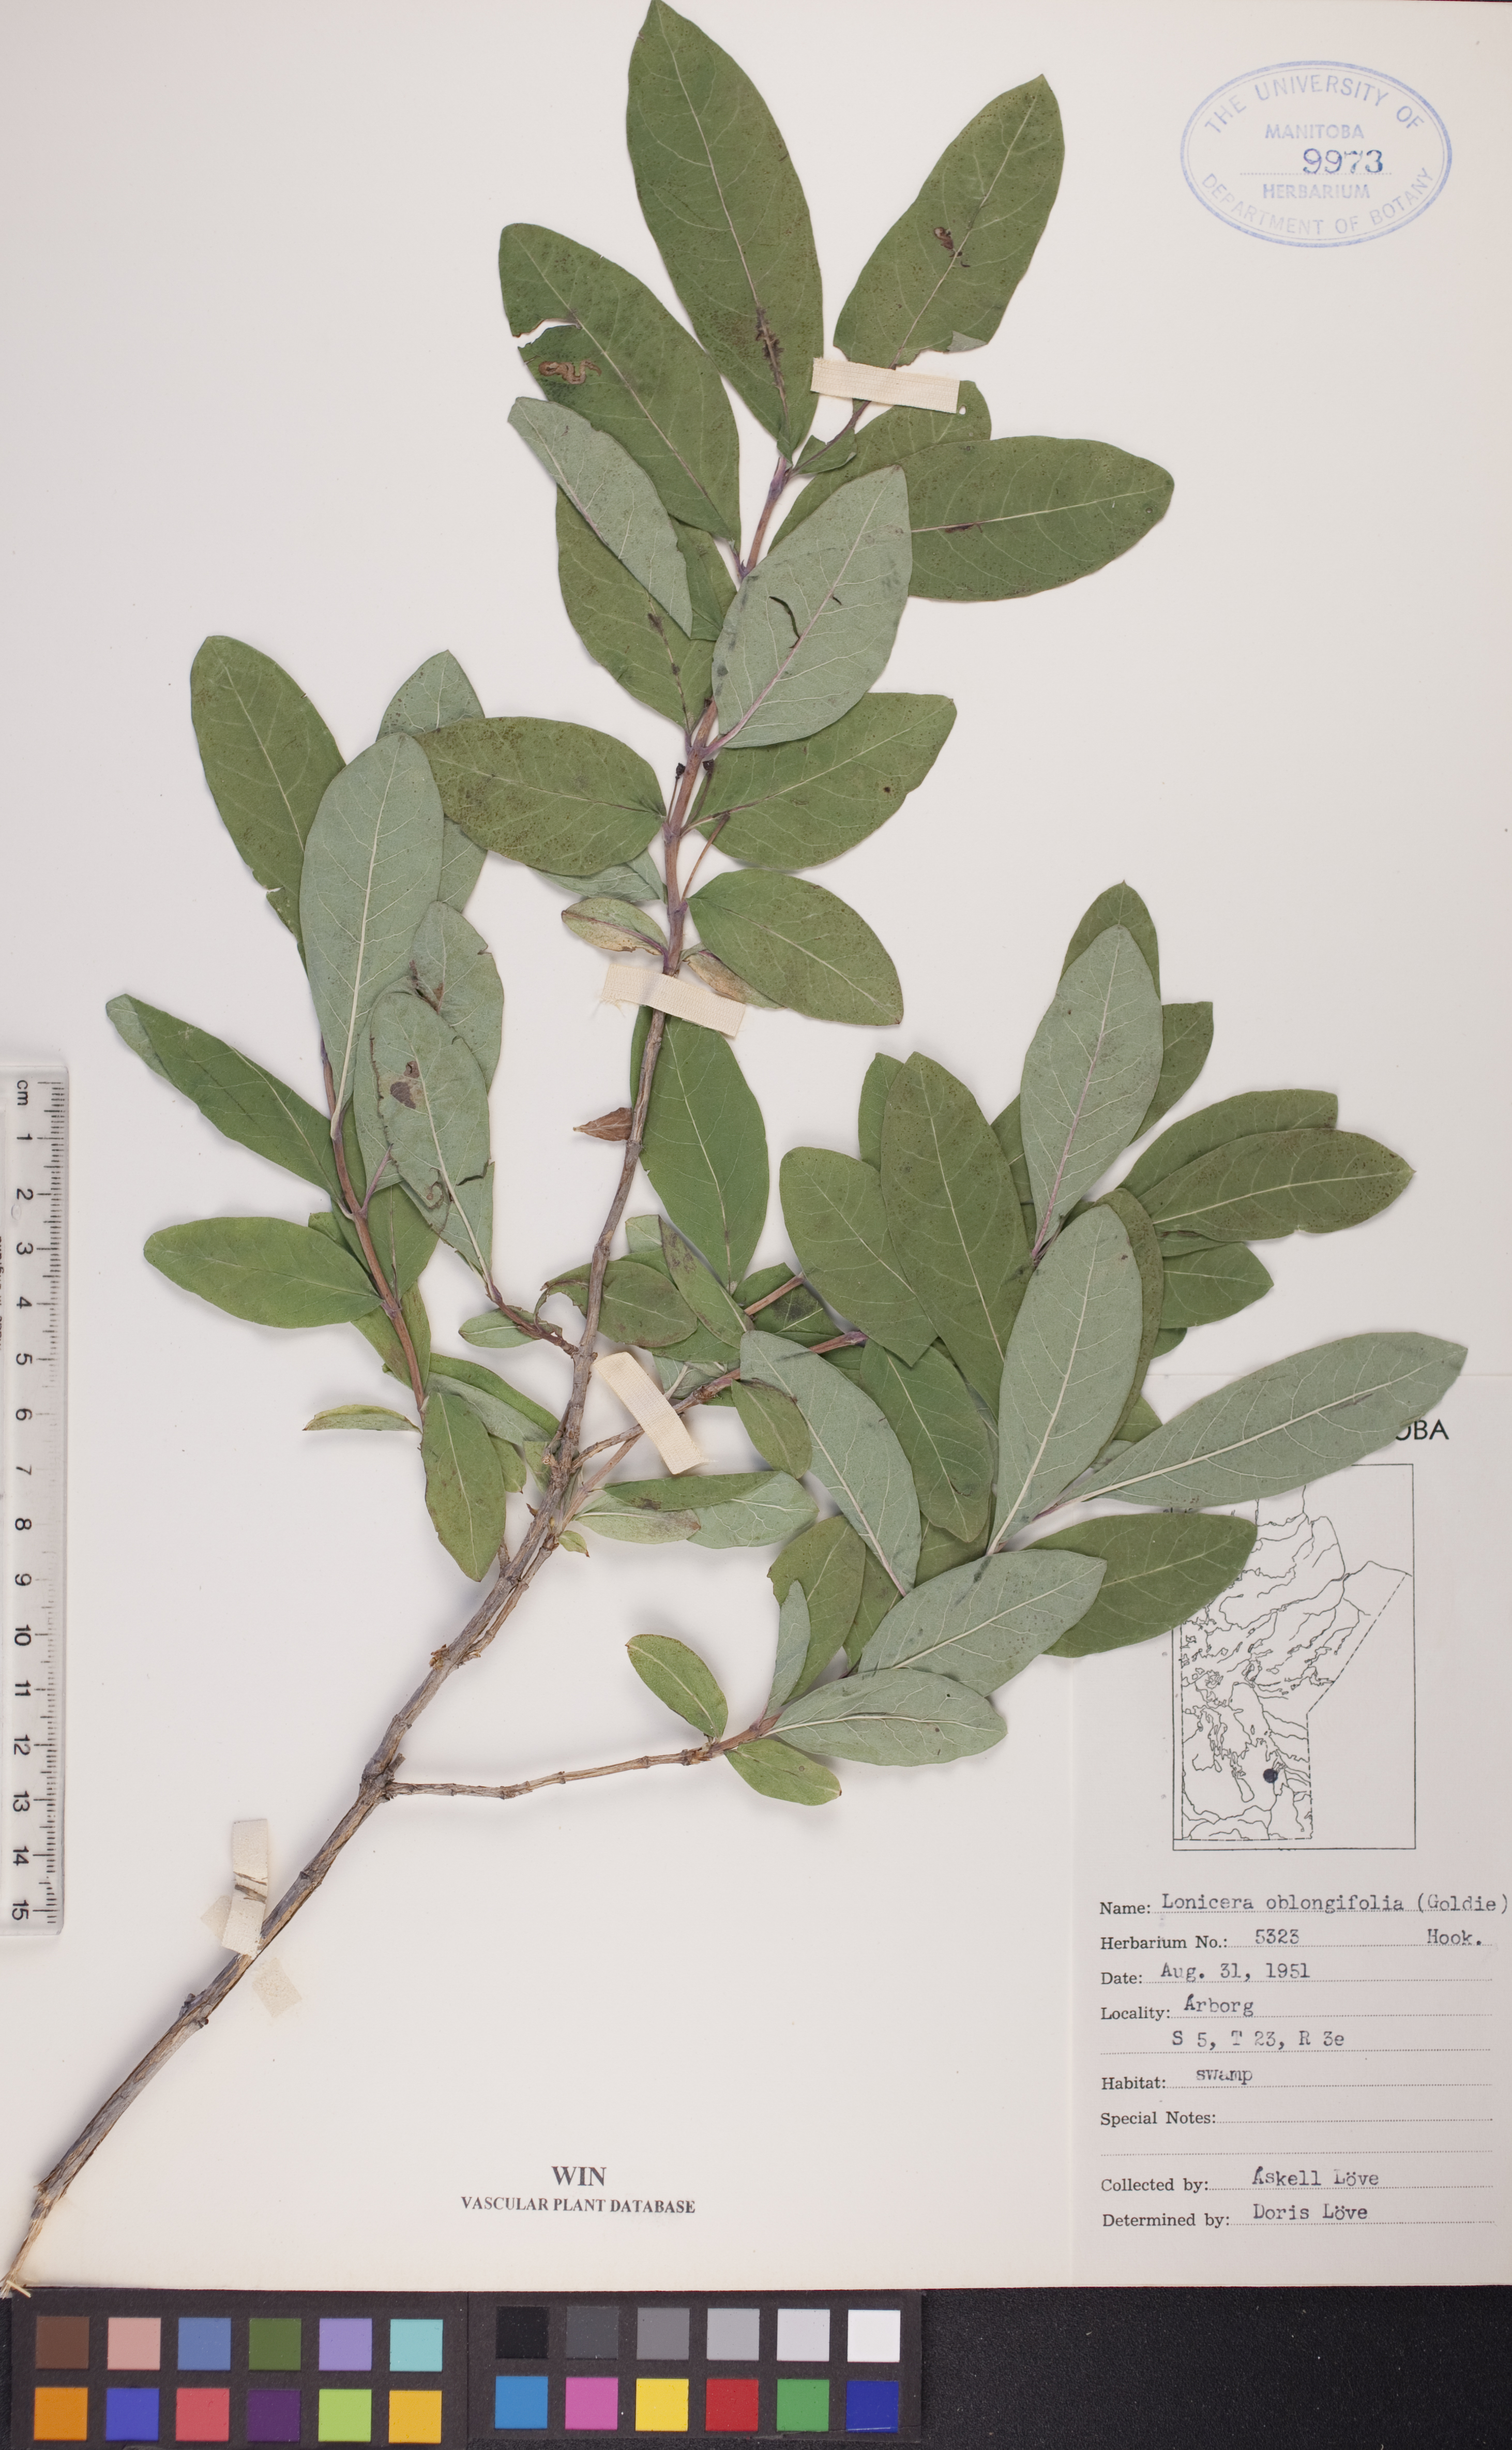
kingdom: Plantae
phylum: Tracheophyta
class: Magnoliopsida
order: Dipsacales
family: Caprifoliaceae
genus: Lonicera
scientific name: Lonicera oblongifolia
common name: Swamp fly honeysuckle
